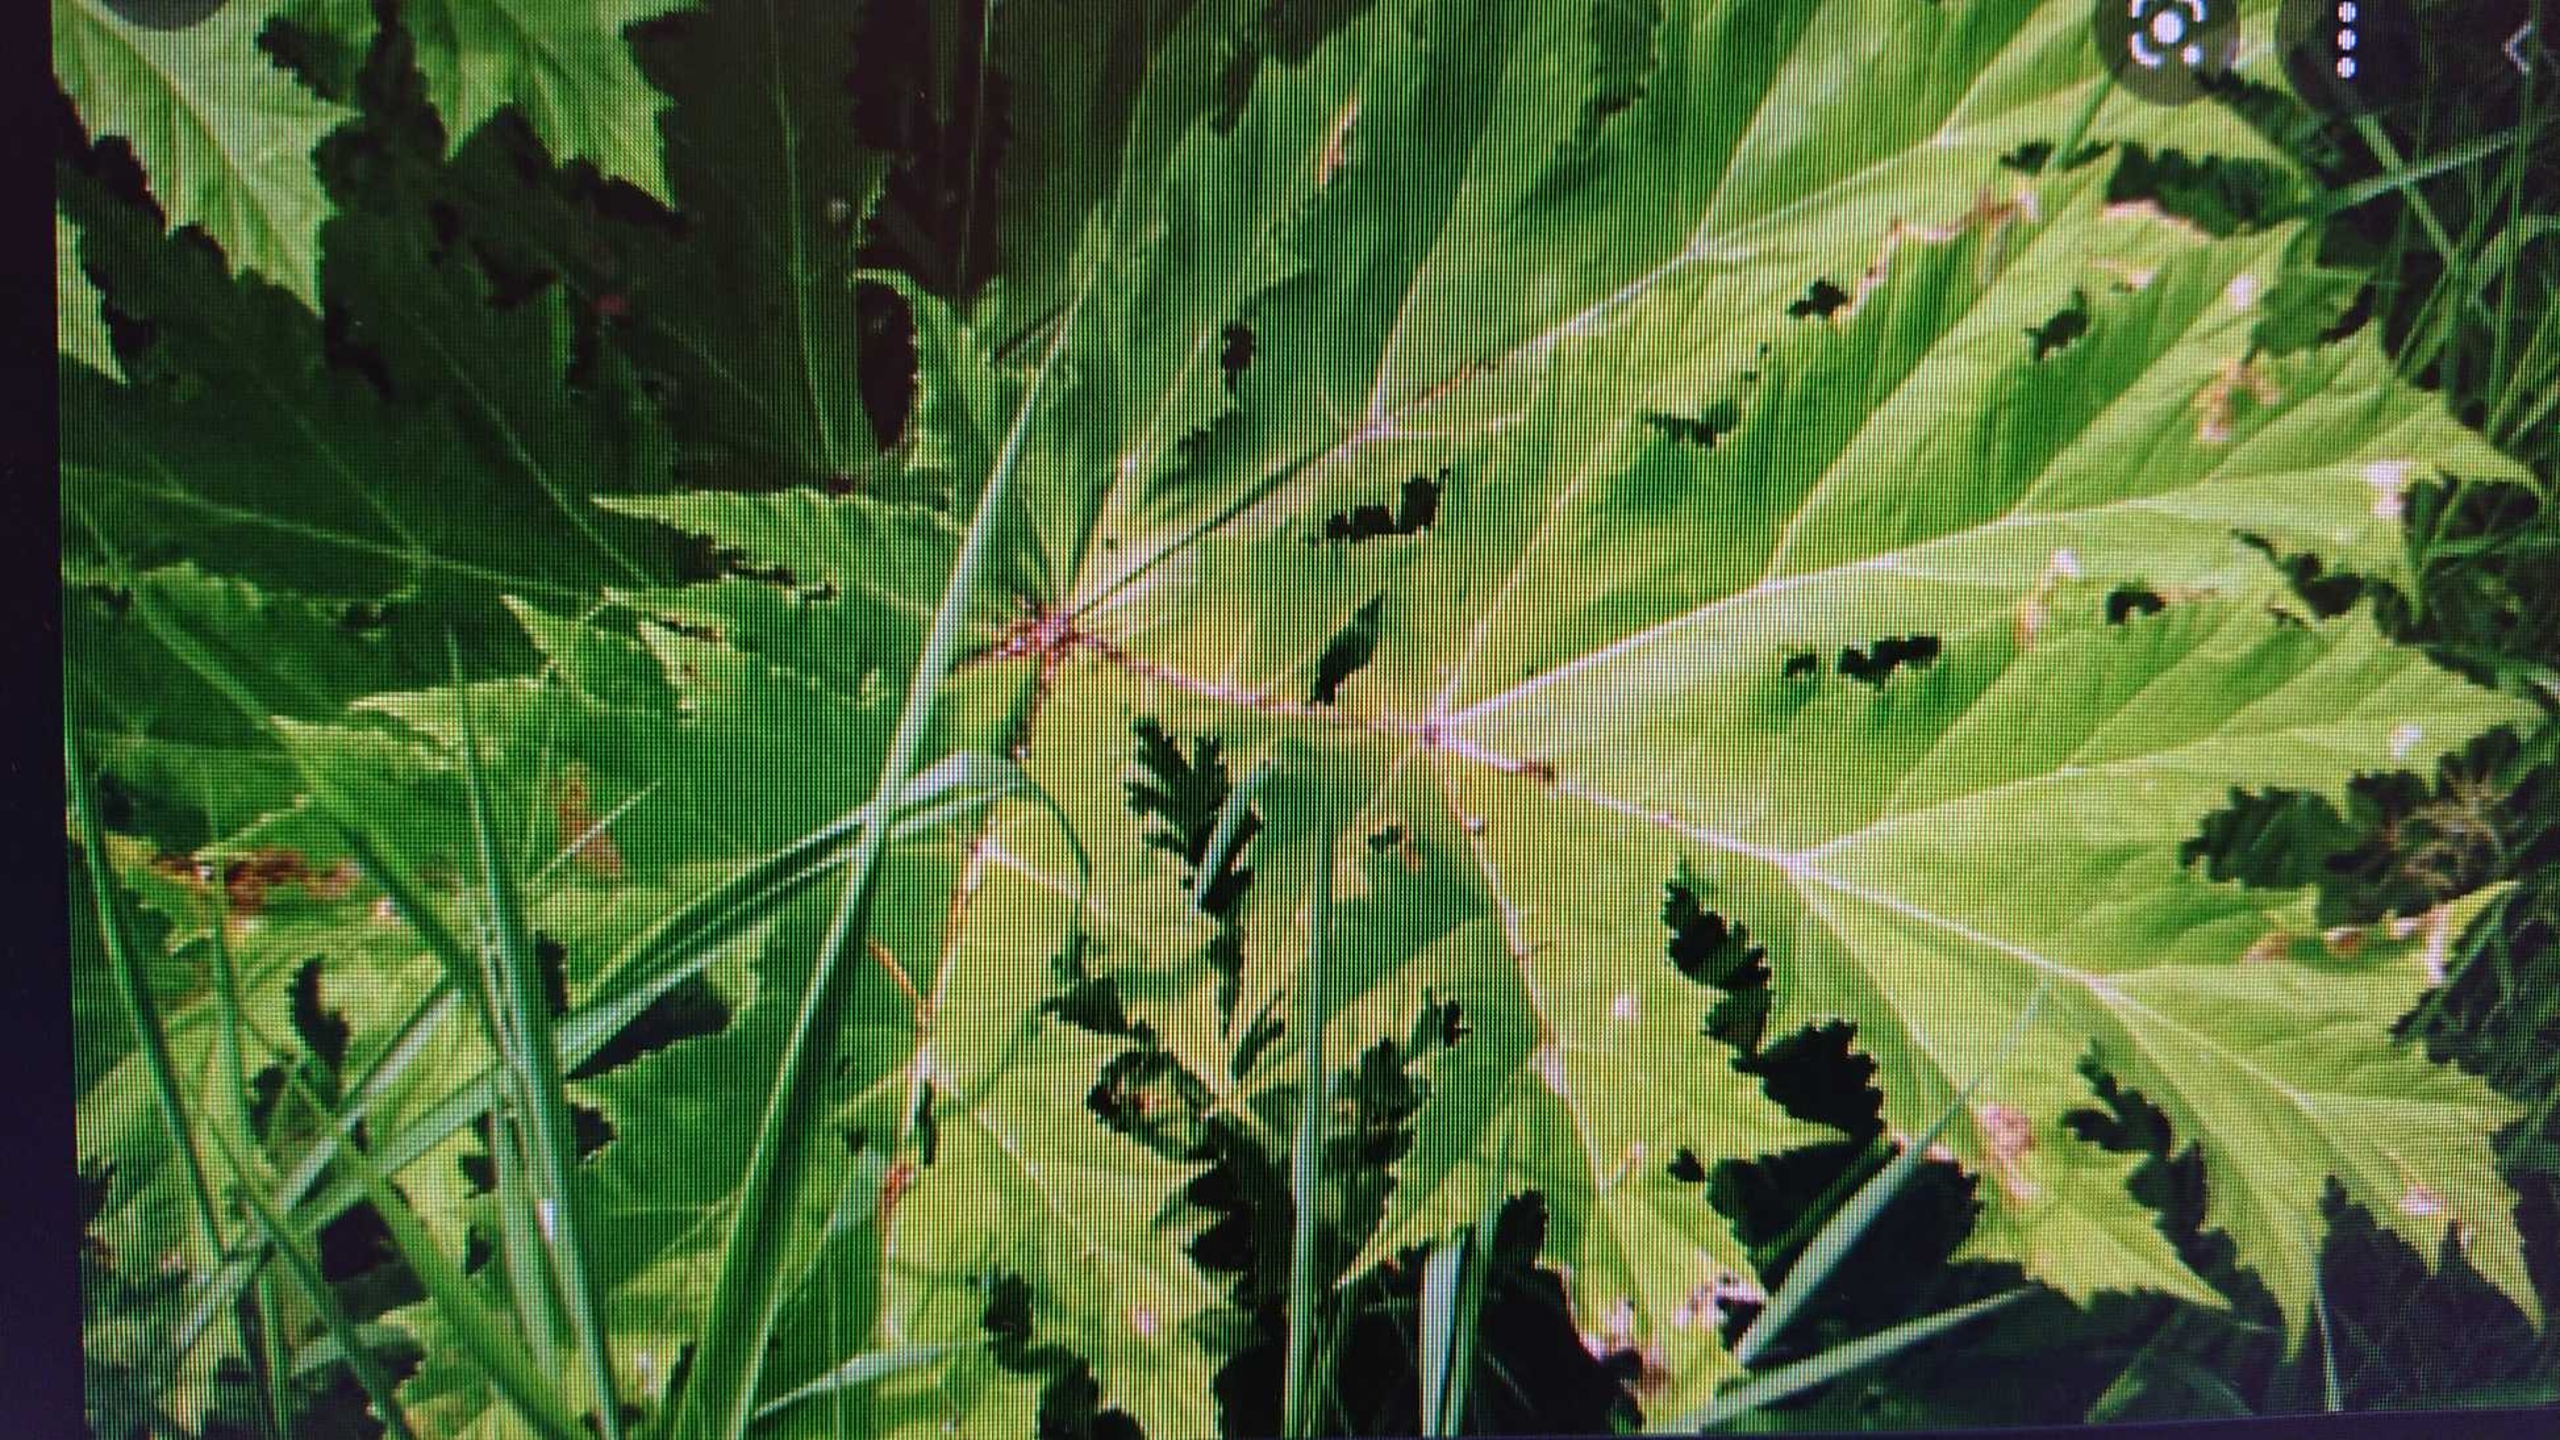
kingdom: Plantae
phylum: Tracheophyta
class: Magnoliopsida
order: Apiales
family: Apiaceae
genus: Heracleum
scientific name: Heracleum mantegazzianum
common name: Kæmpe-bjørneklo
